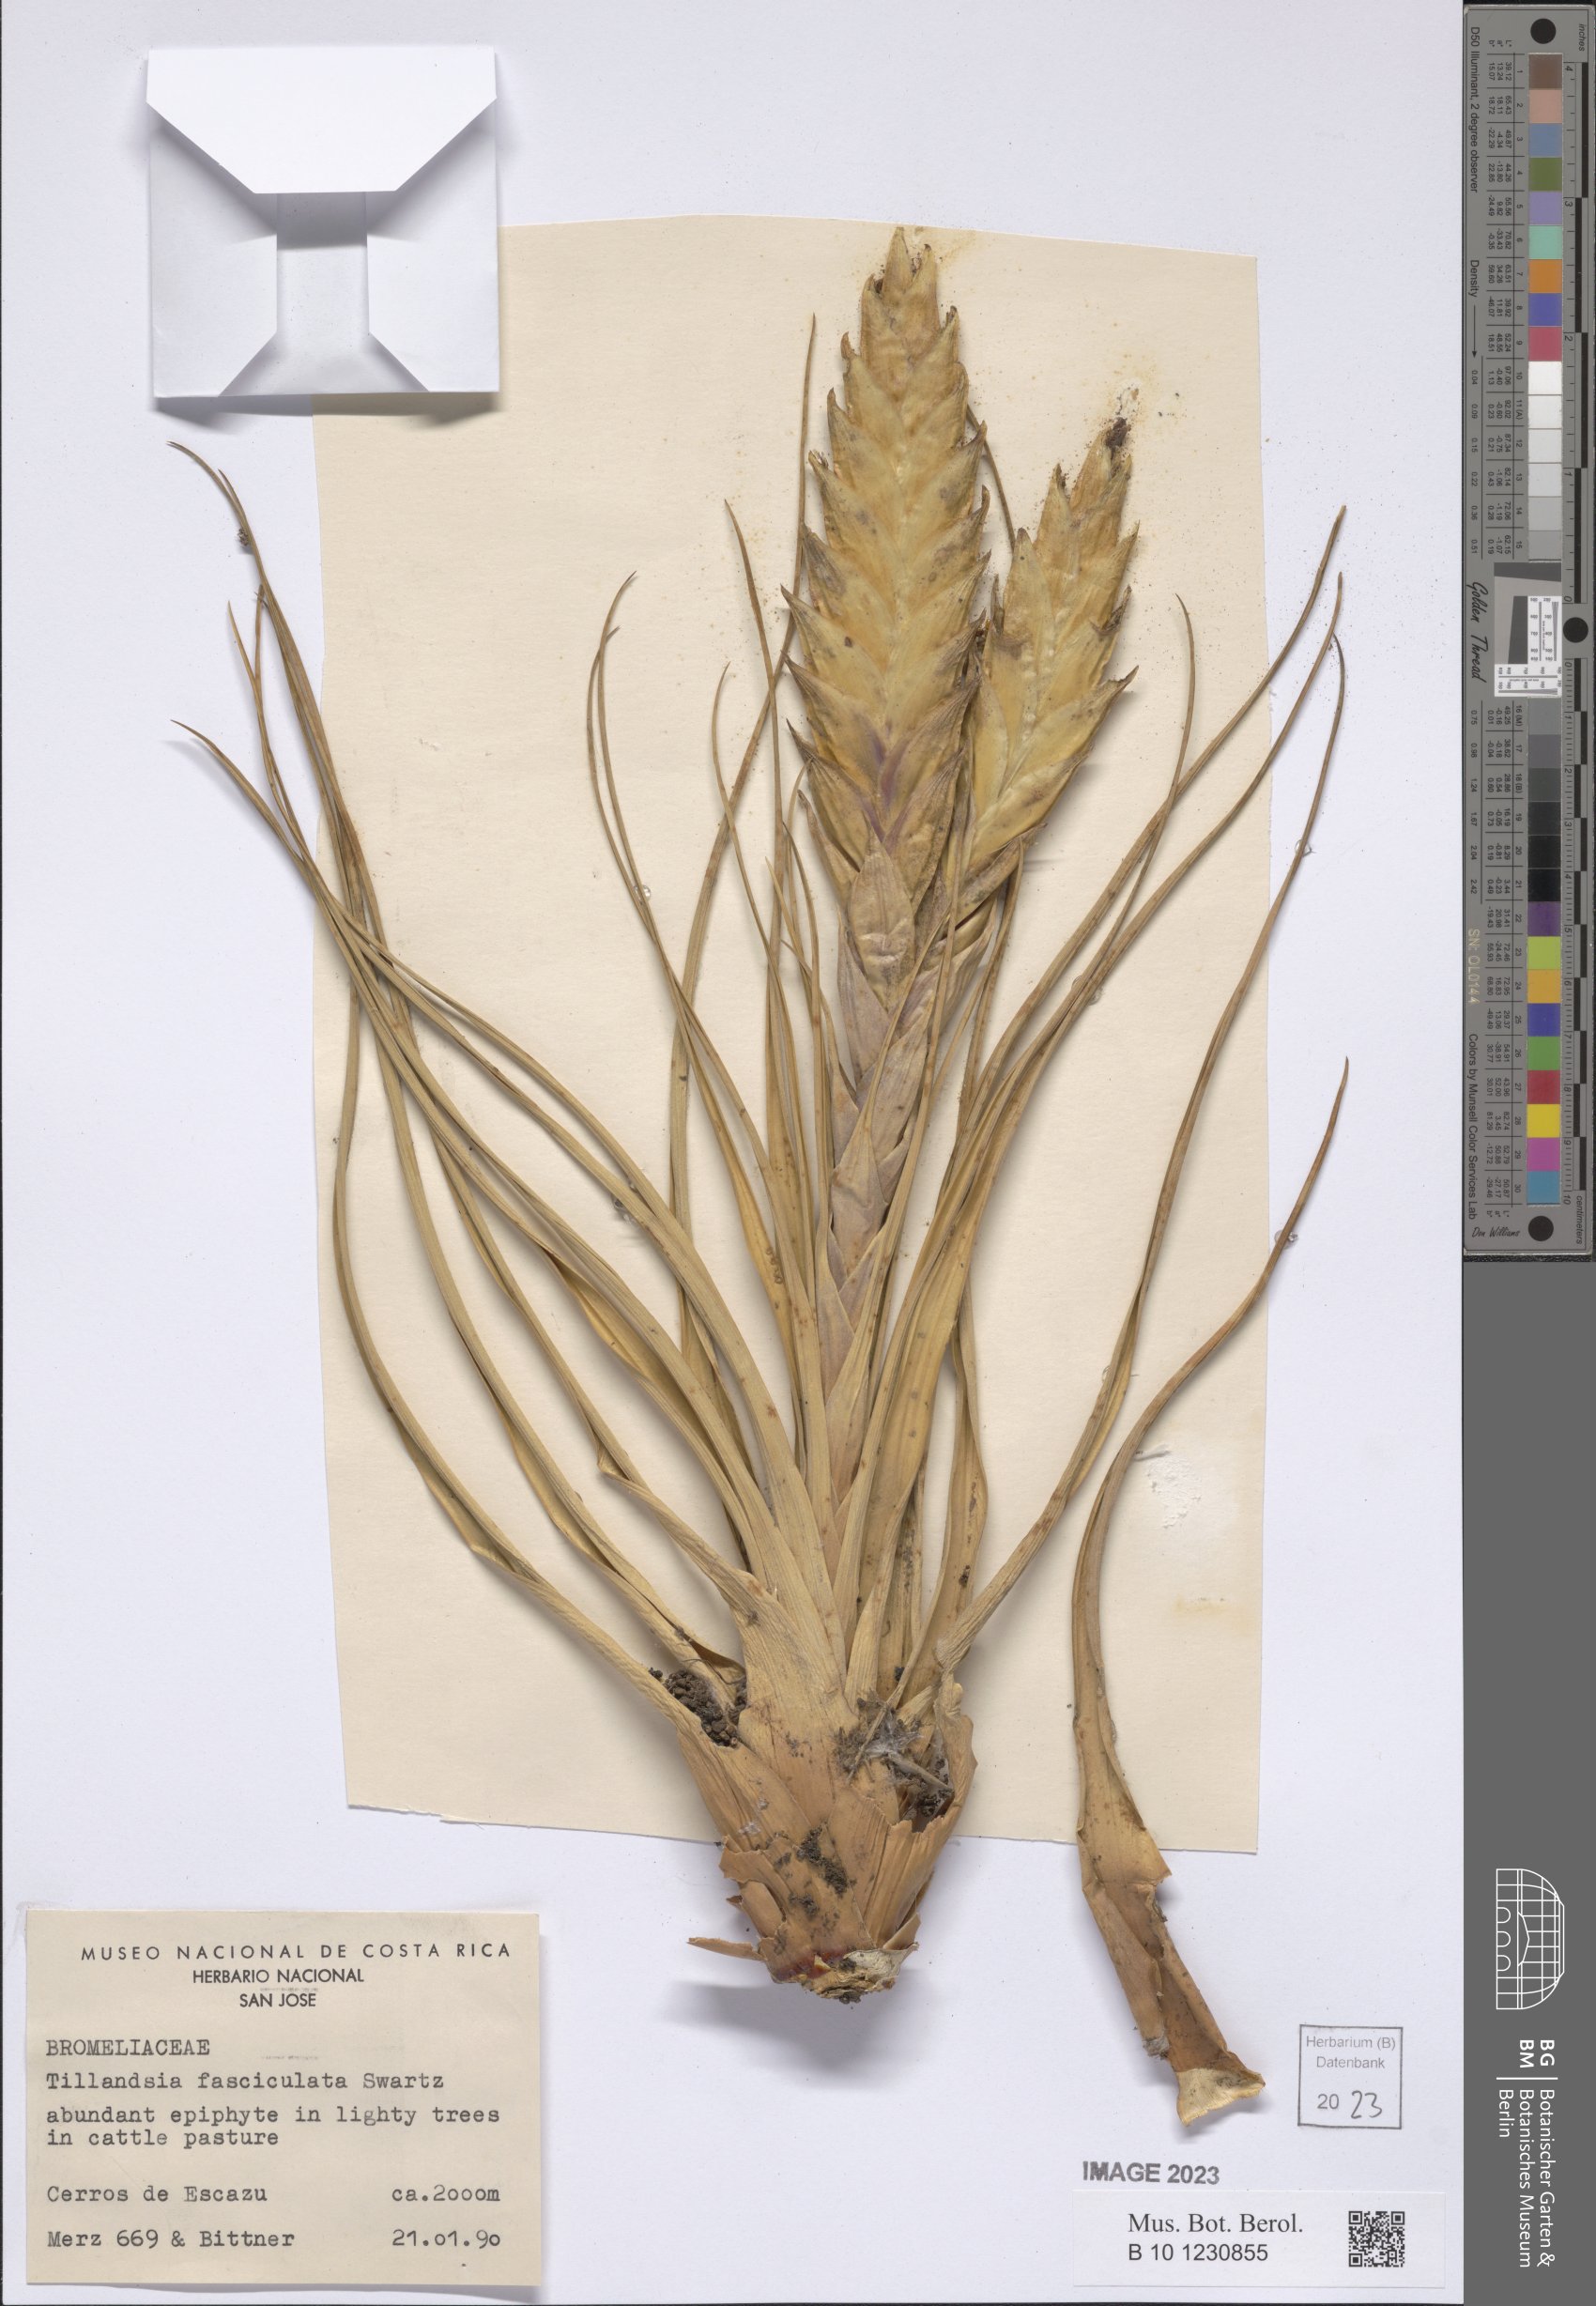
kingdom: Plantae
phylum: Tracheophyta
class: Liliopsida
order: Poales
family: Bromeliaceae
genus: Tillandsia
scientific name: Tillandsia fasciculata
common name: Giant airplant
